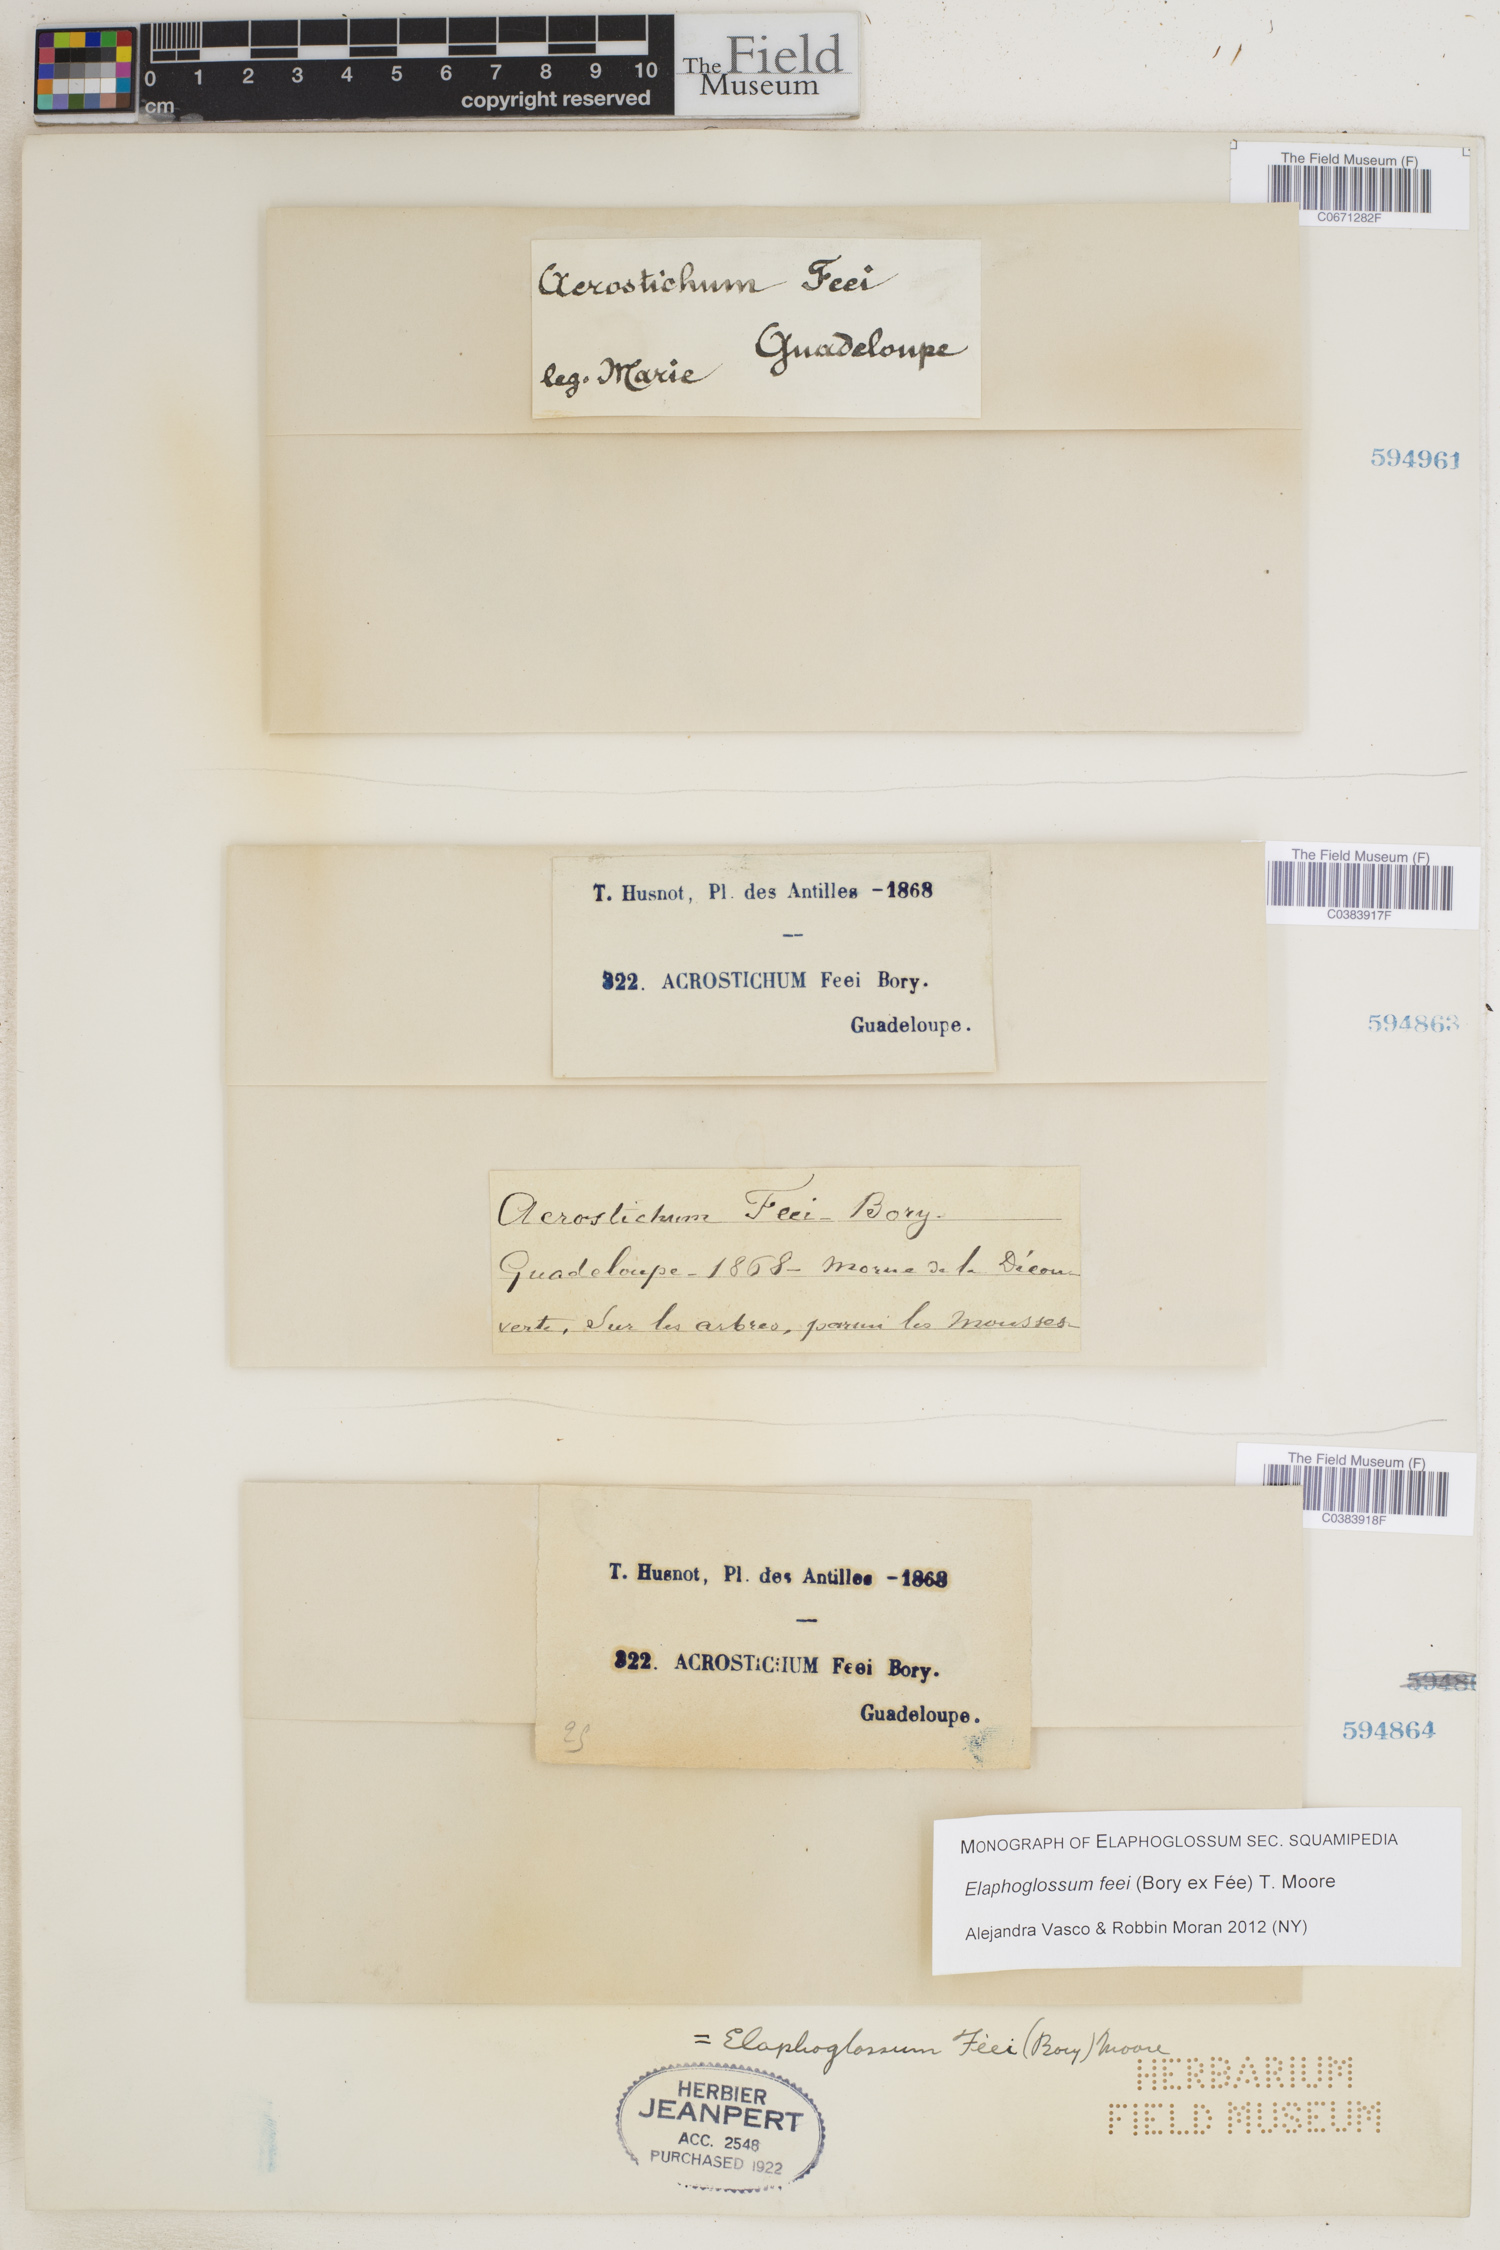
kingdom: Plantae
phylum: Tracheophyta
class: Polypodiopsida
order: Polypodiales
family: Dryopteridaceae
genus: Elaphoglossum
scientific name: Elaphoglossum feei
